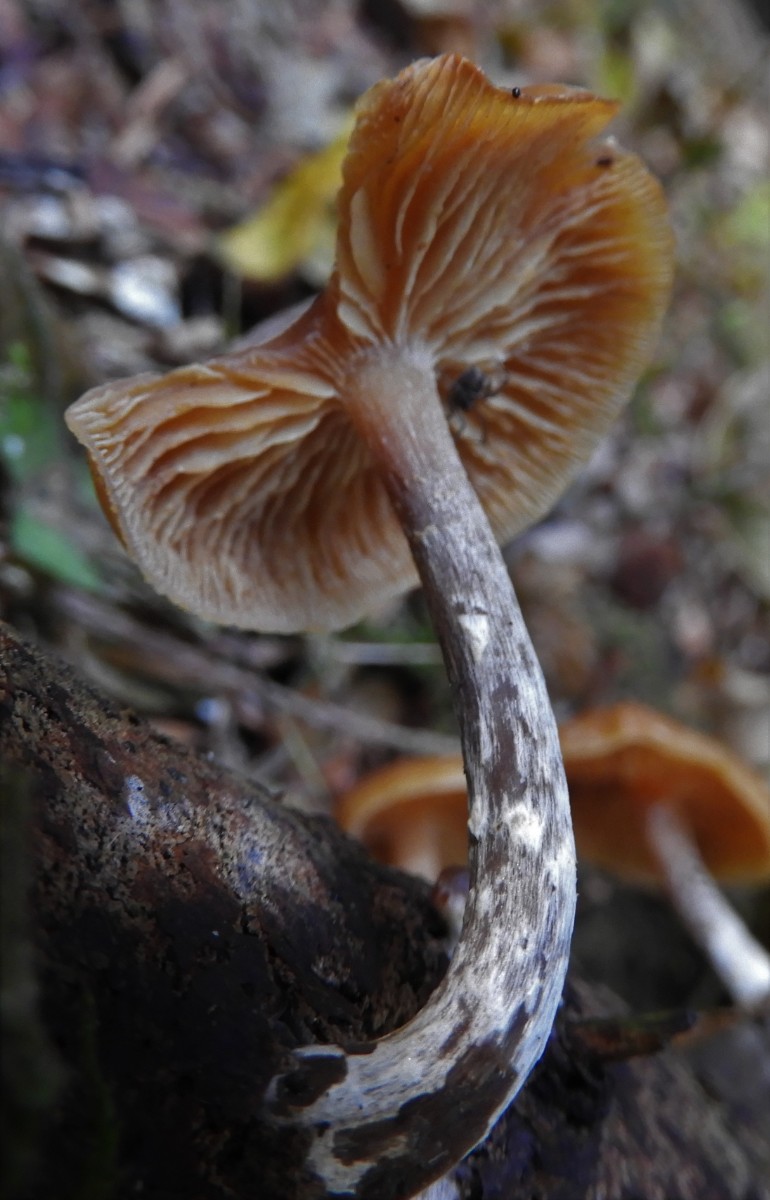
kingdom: Fungi
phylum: Basidiomycota
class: Agaricomycetes
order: Agaricales
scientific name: Agaricales
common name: champignonordenen
